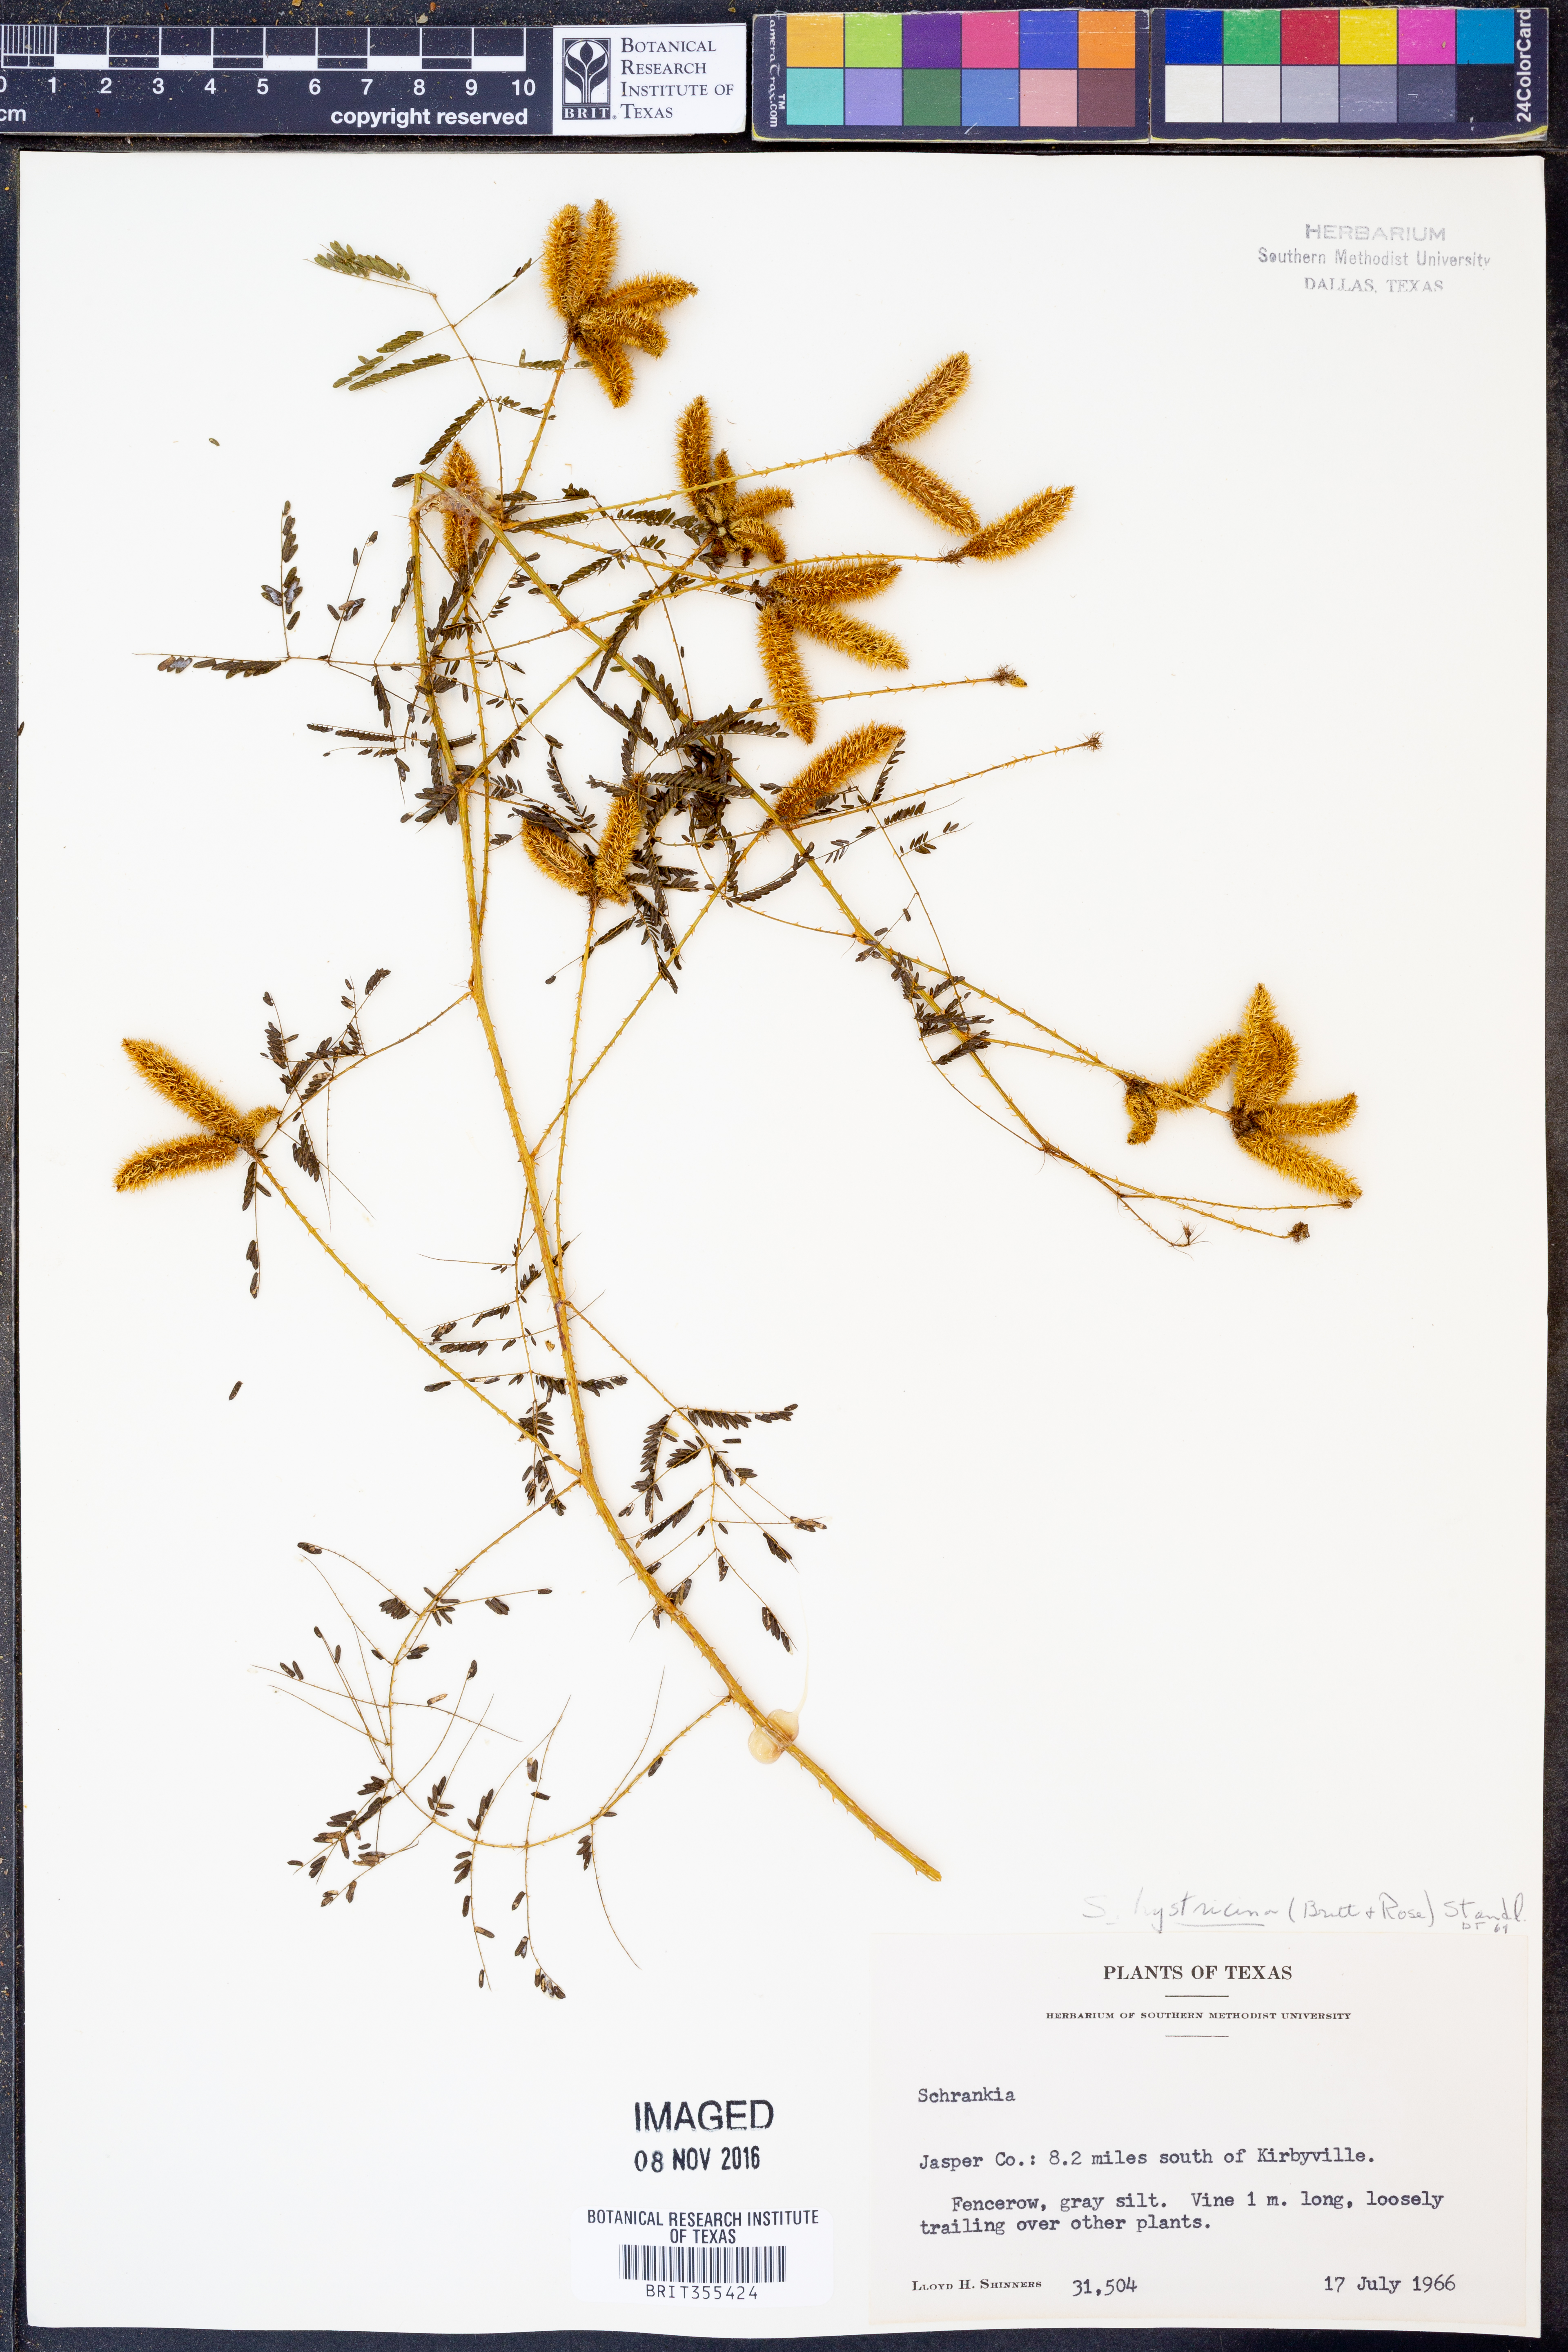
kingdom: Plantae
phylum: Tracheophyta
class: Magnoliopsida
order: Fabales
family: Fabaceae
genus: Mimosa
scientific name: Mimosa hystricina
